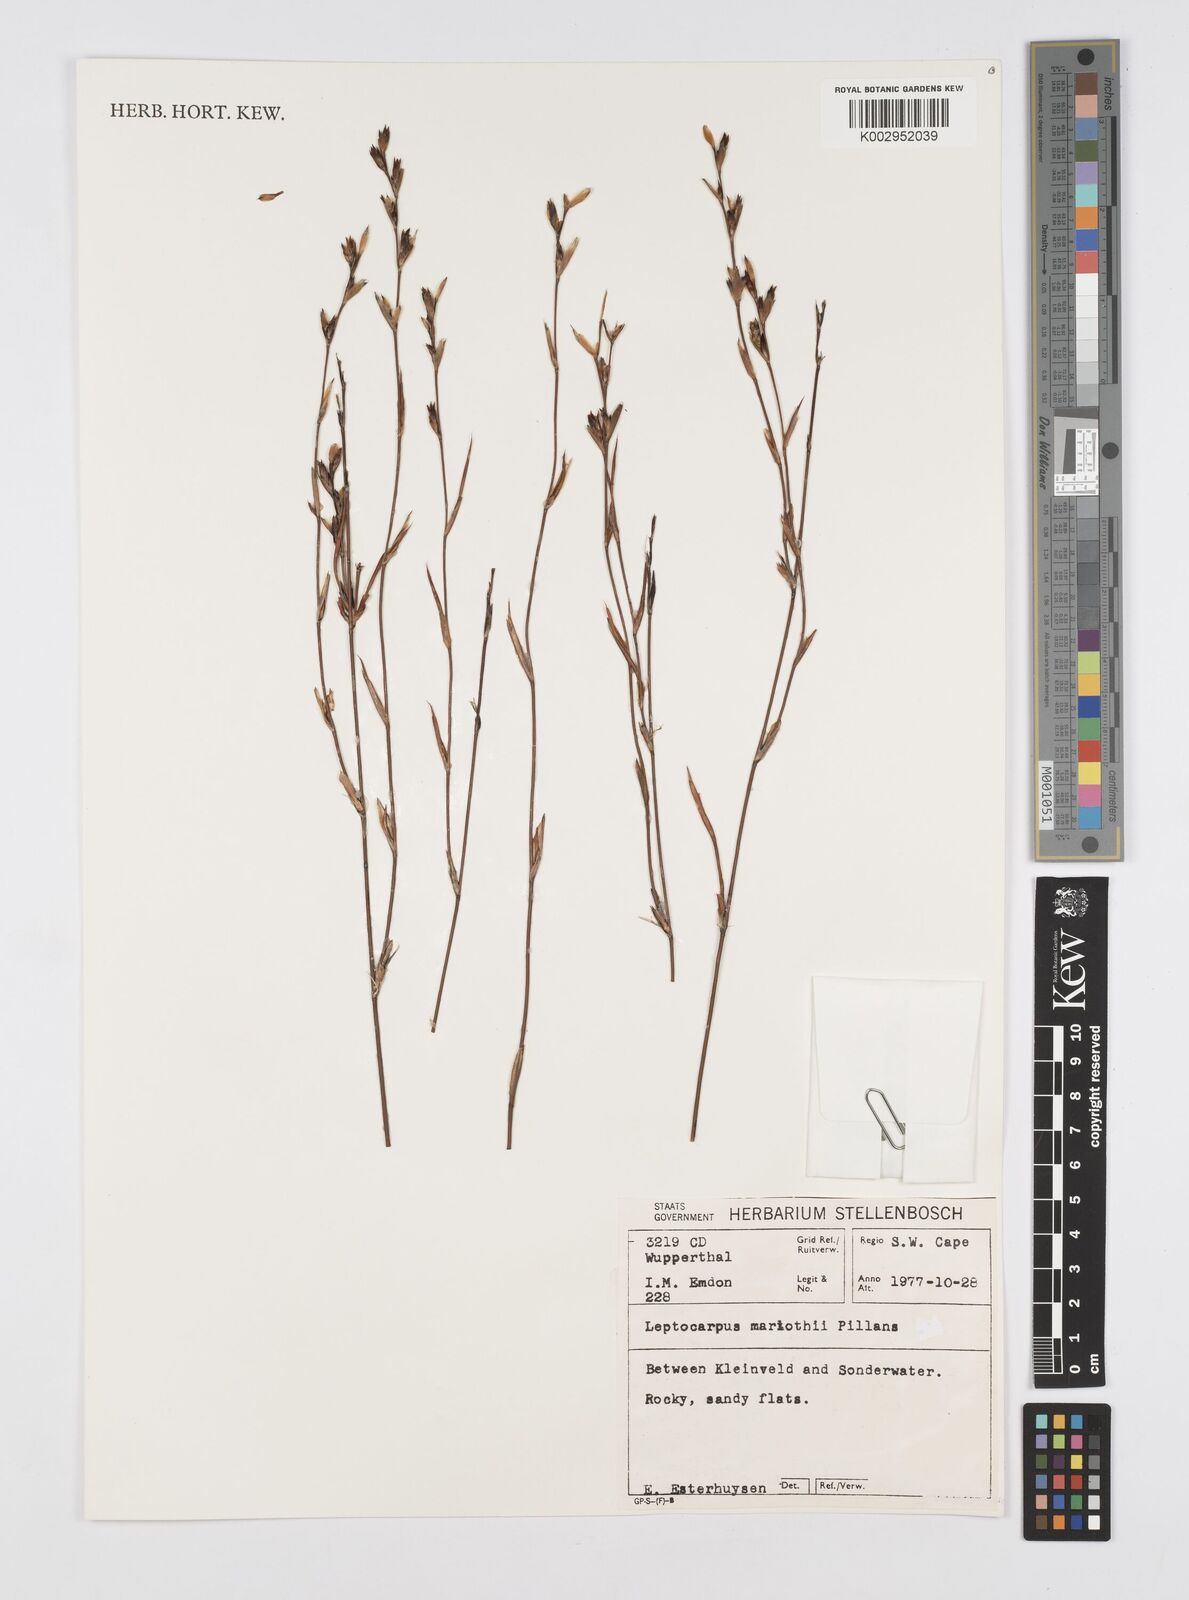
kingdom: Plantae
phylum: Tracheophyta
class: Liliopsida
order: Poales
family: Restionaceae
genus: Restio
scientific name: Restio marlothii
